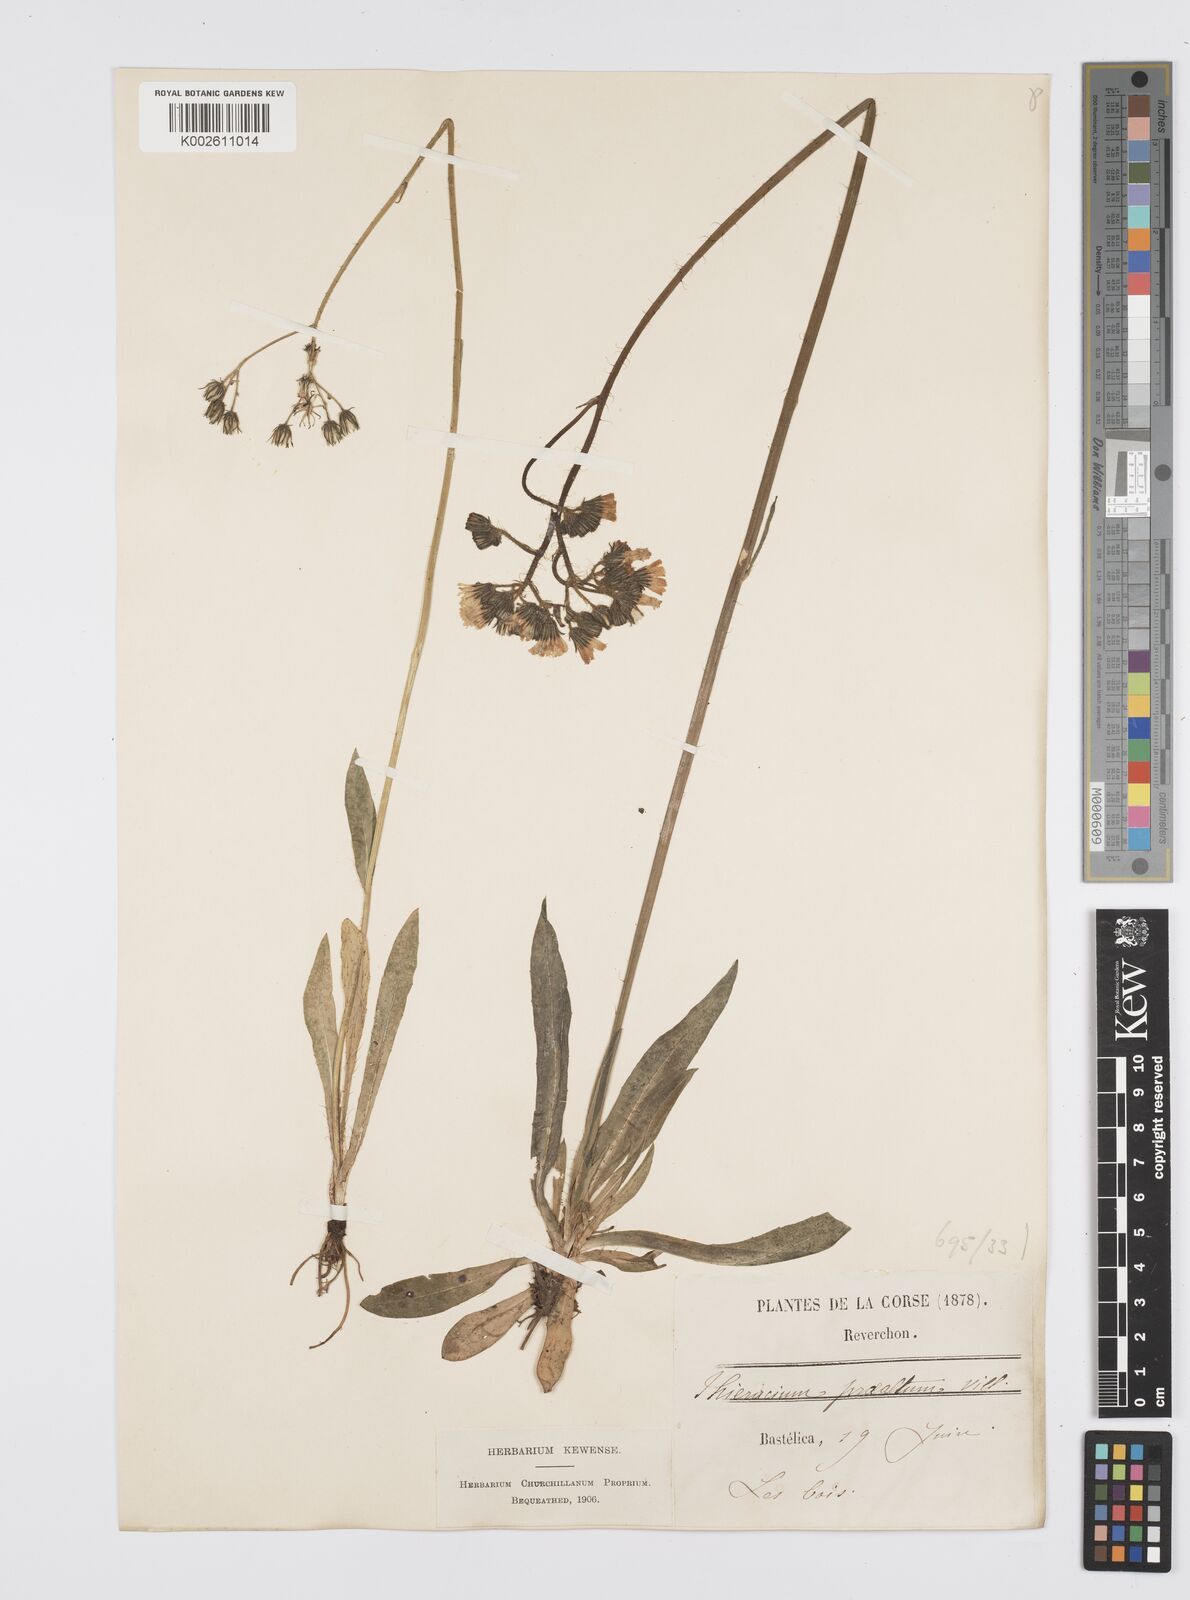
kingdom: Plantae
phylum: Tracheophyta
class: Magnoliopsida
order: Asterales
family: Asteraceae
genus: Pilosella
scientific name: Pilosella piloselloides
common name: Glaucous king-devil
